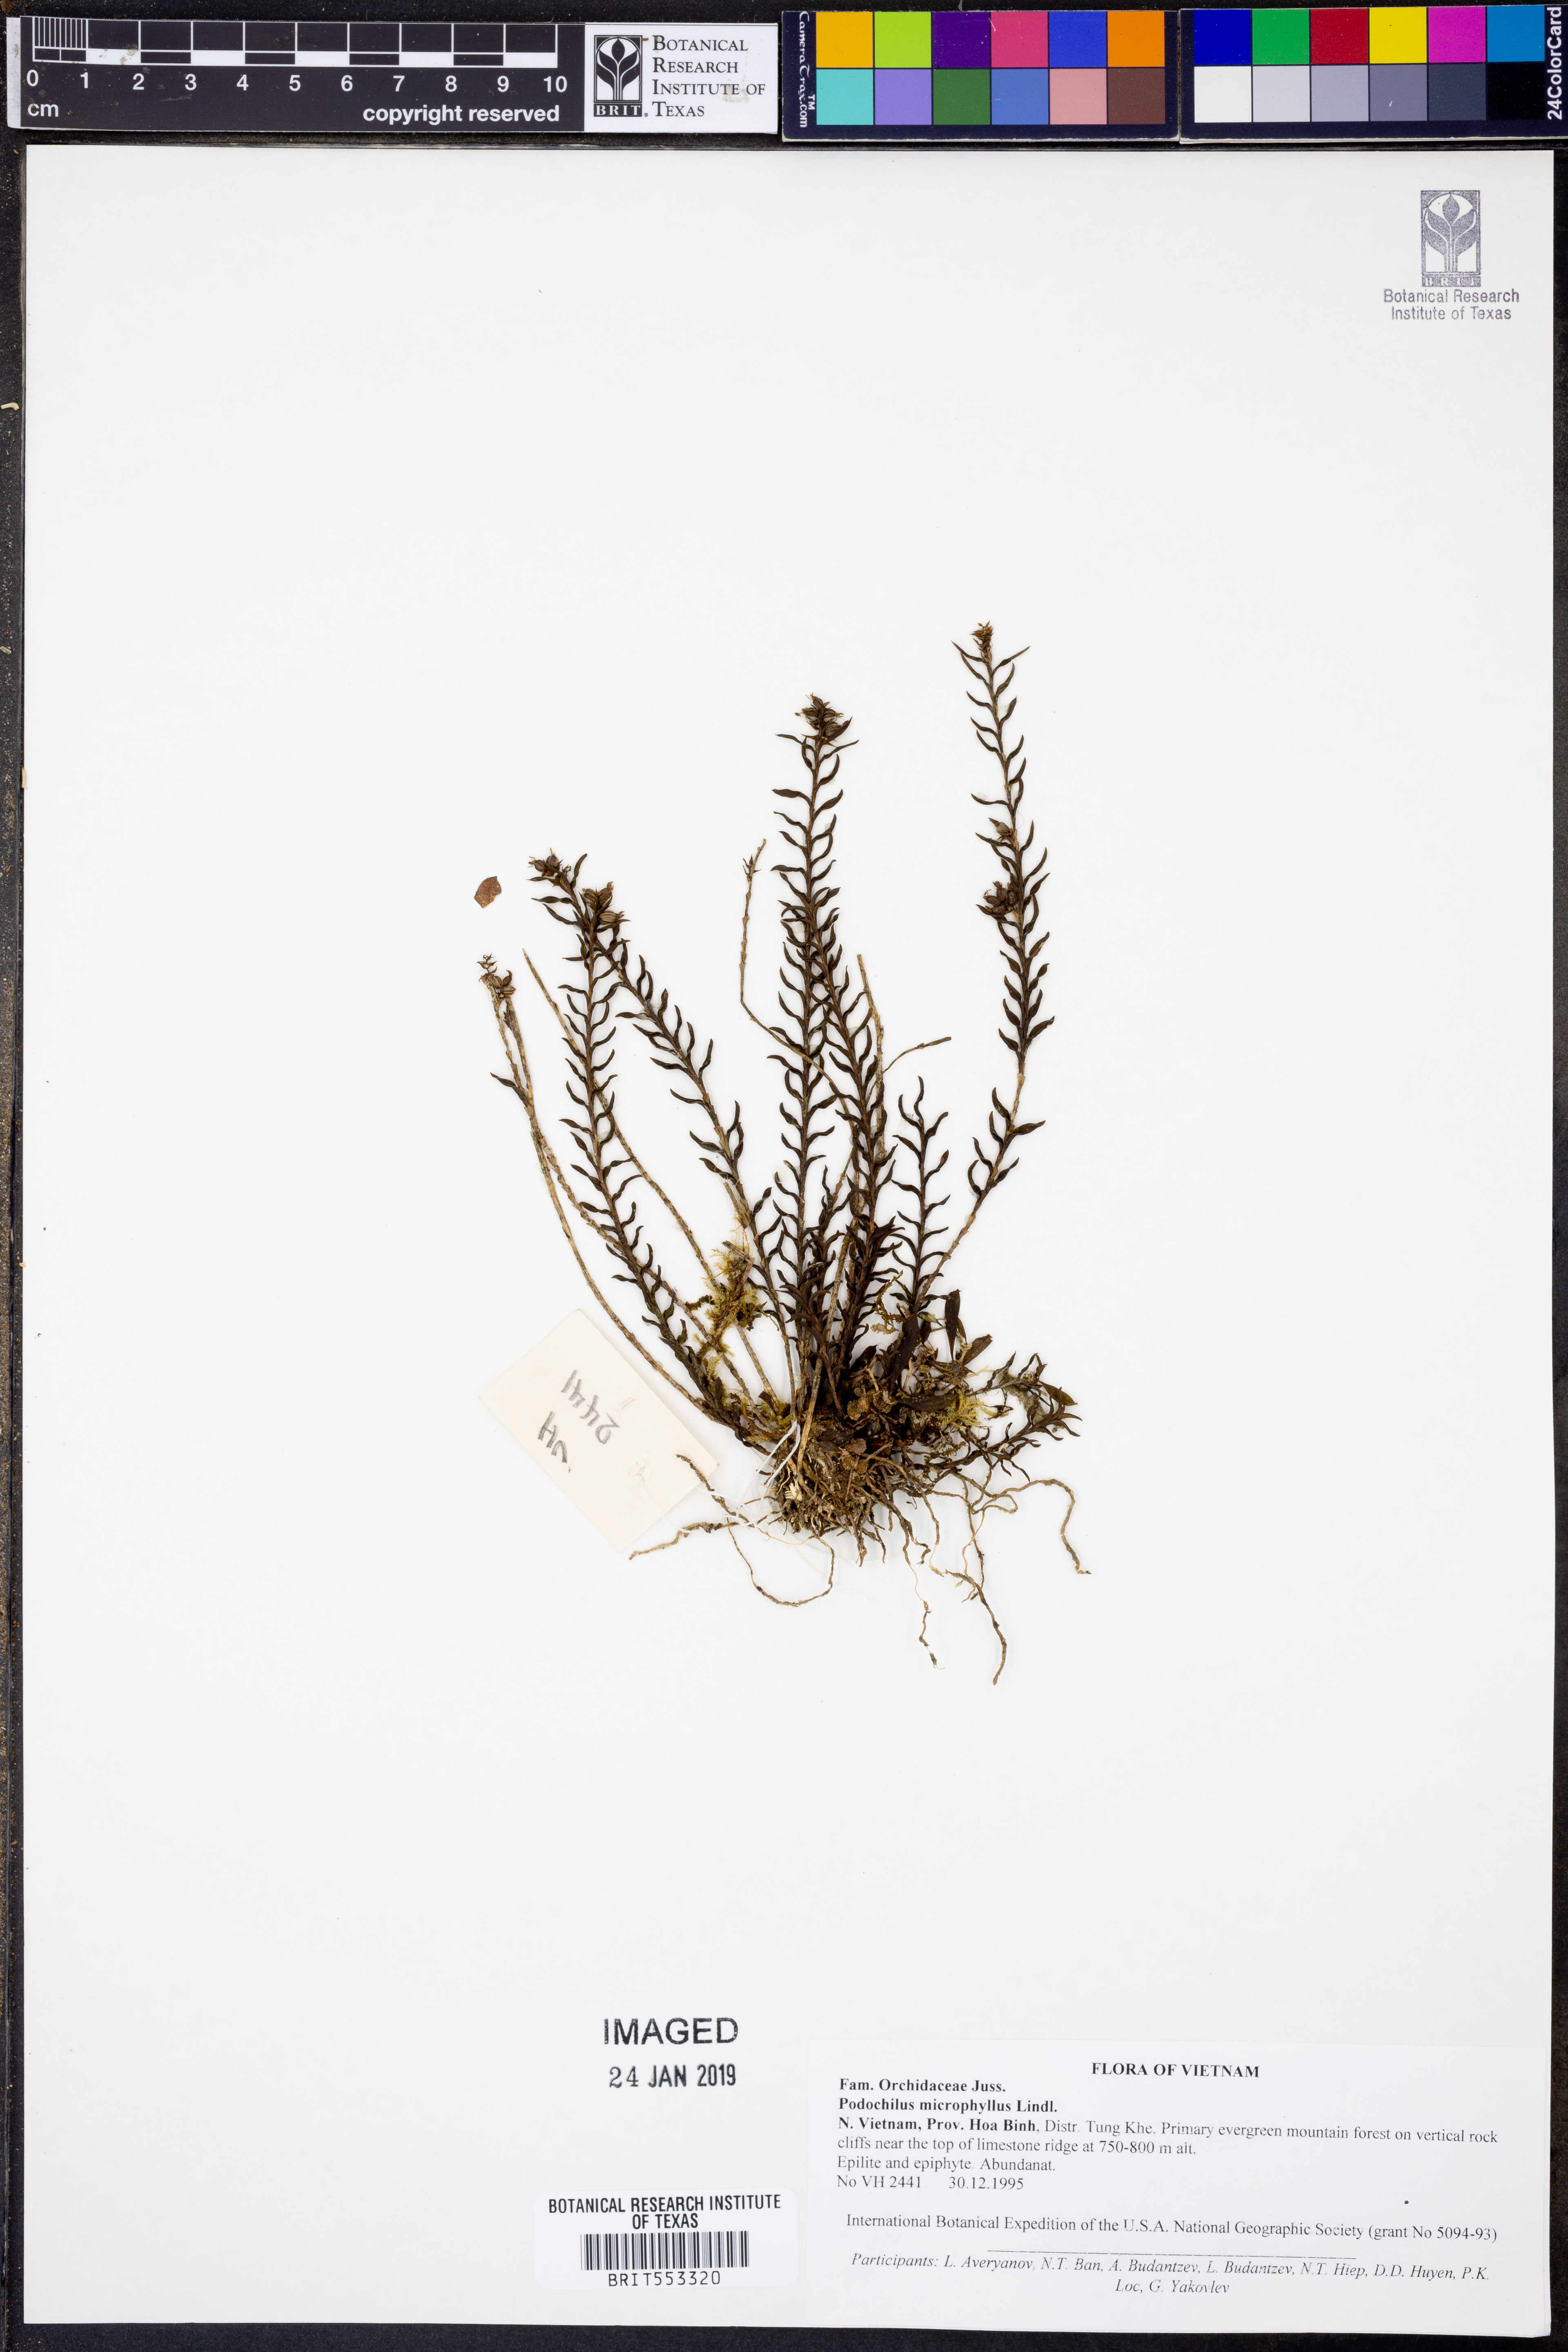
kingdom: Plantae
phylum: Tracheophyta
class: Liliopsida
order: Asparagales
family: Orchidaceae
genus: Podochilus
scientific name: Podochilus microphyllus
